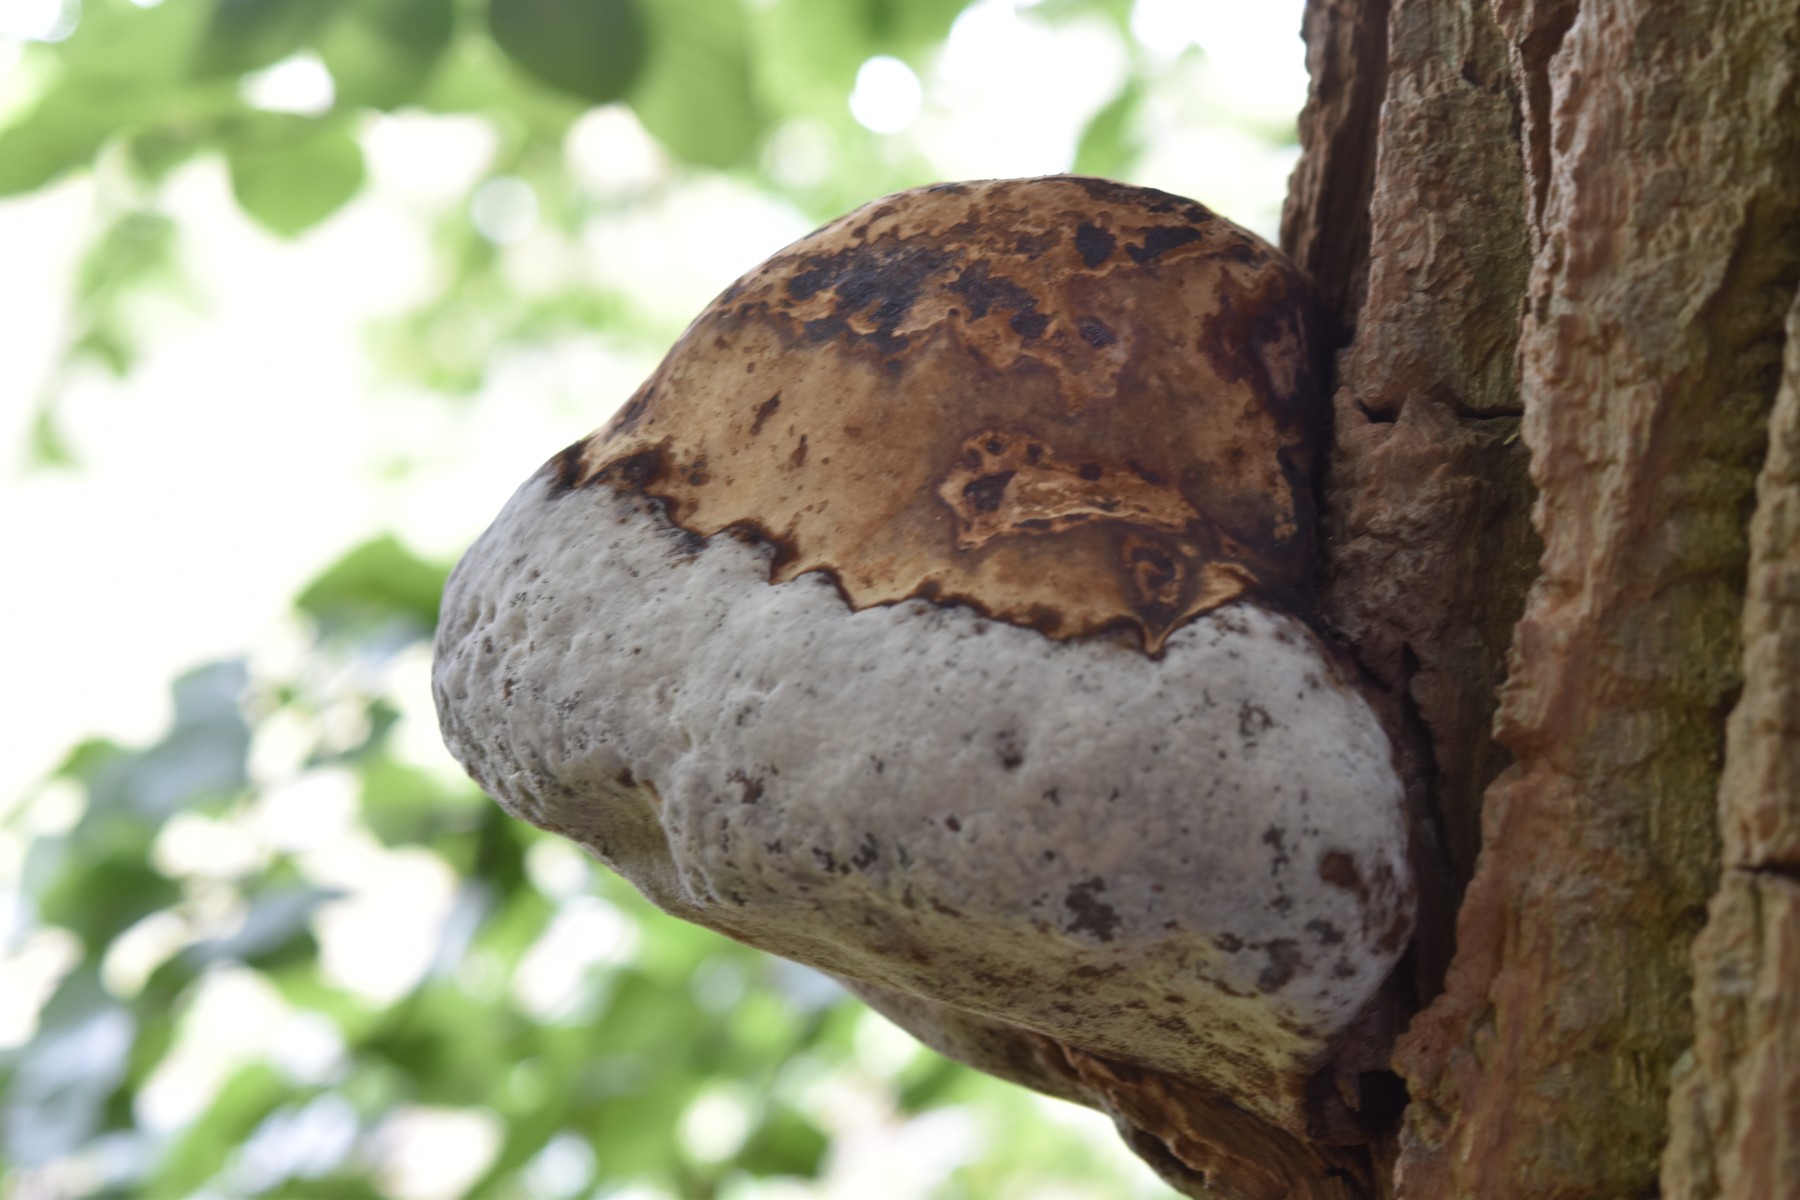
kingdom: Fungi
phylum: Basidiomycota
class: Agaricomycetes
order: Hymenochaetales
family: Hymenochaetaceae
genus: Phellinus
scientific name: Phellinus populicola
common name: poppel-ildporesvamp
